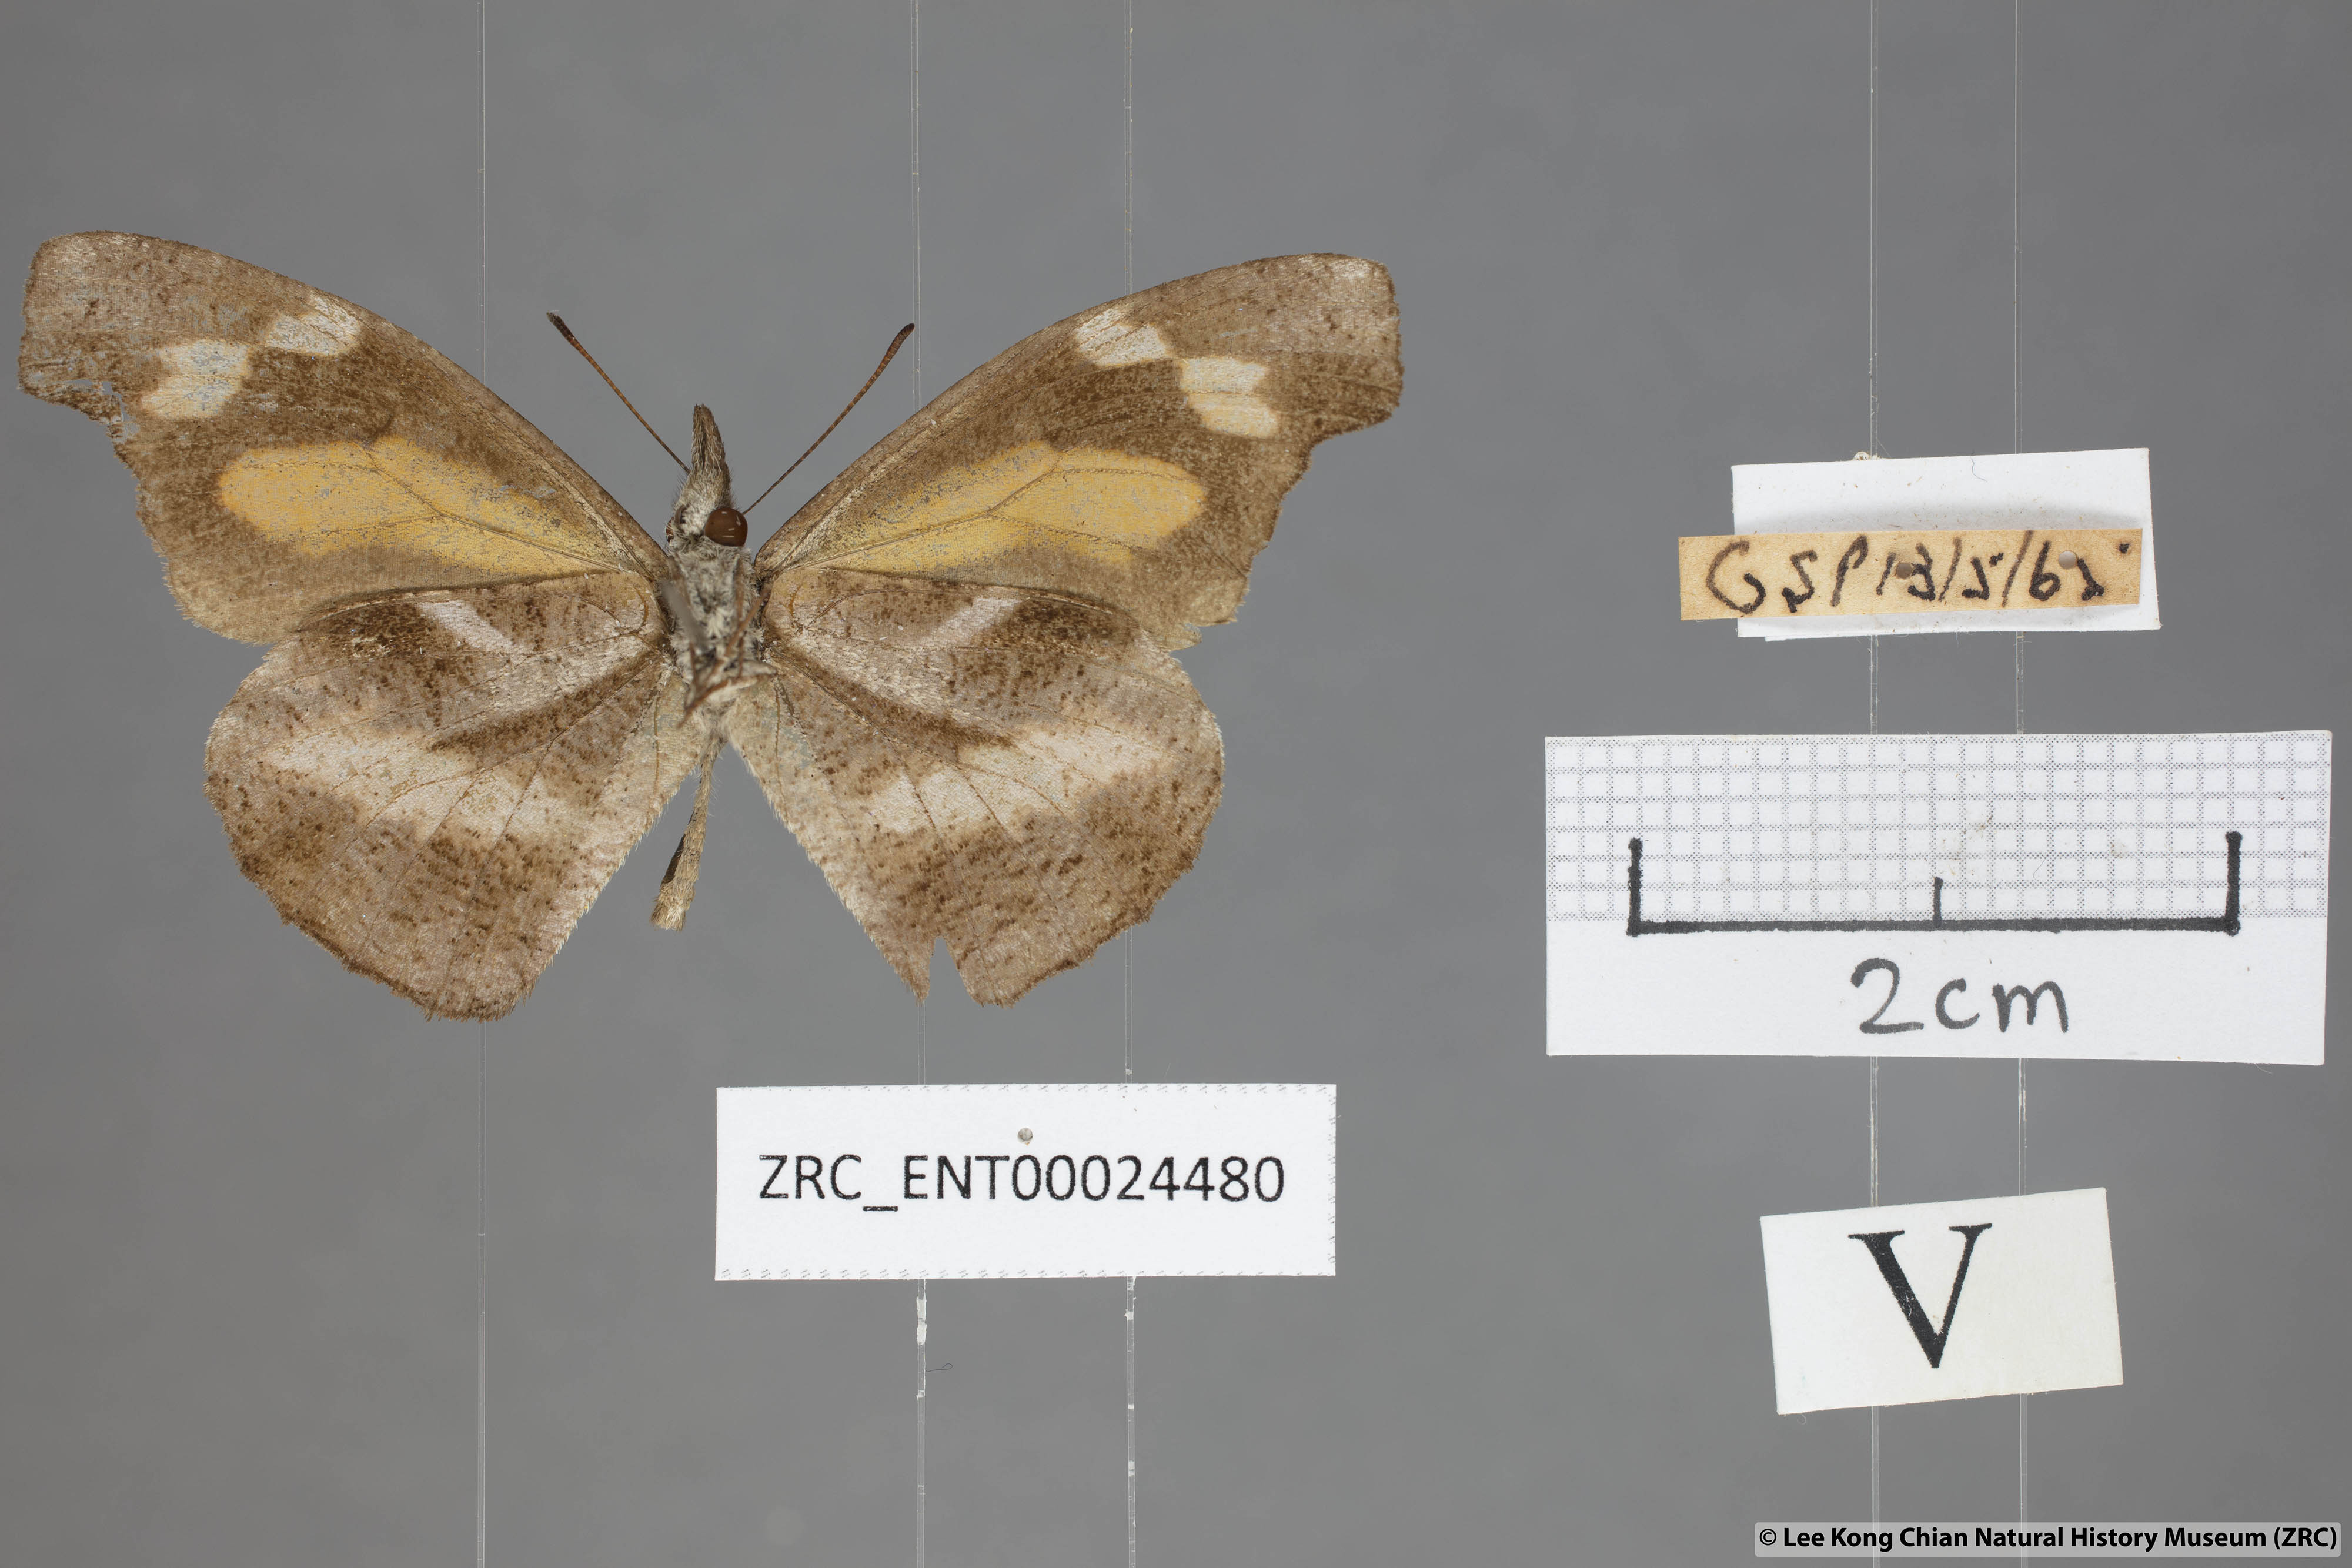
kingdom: Animalia
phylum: Arthropoda
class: Insecta
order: Lepidoptera
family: Nymphalidae
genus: Libythea
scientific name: Libythea myrrha
